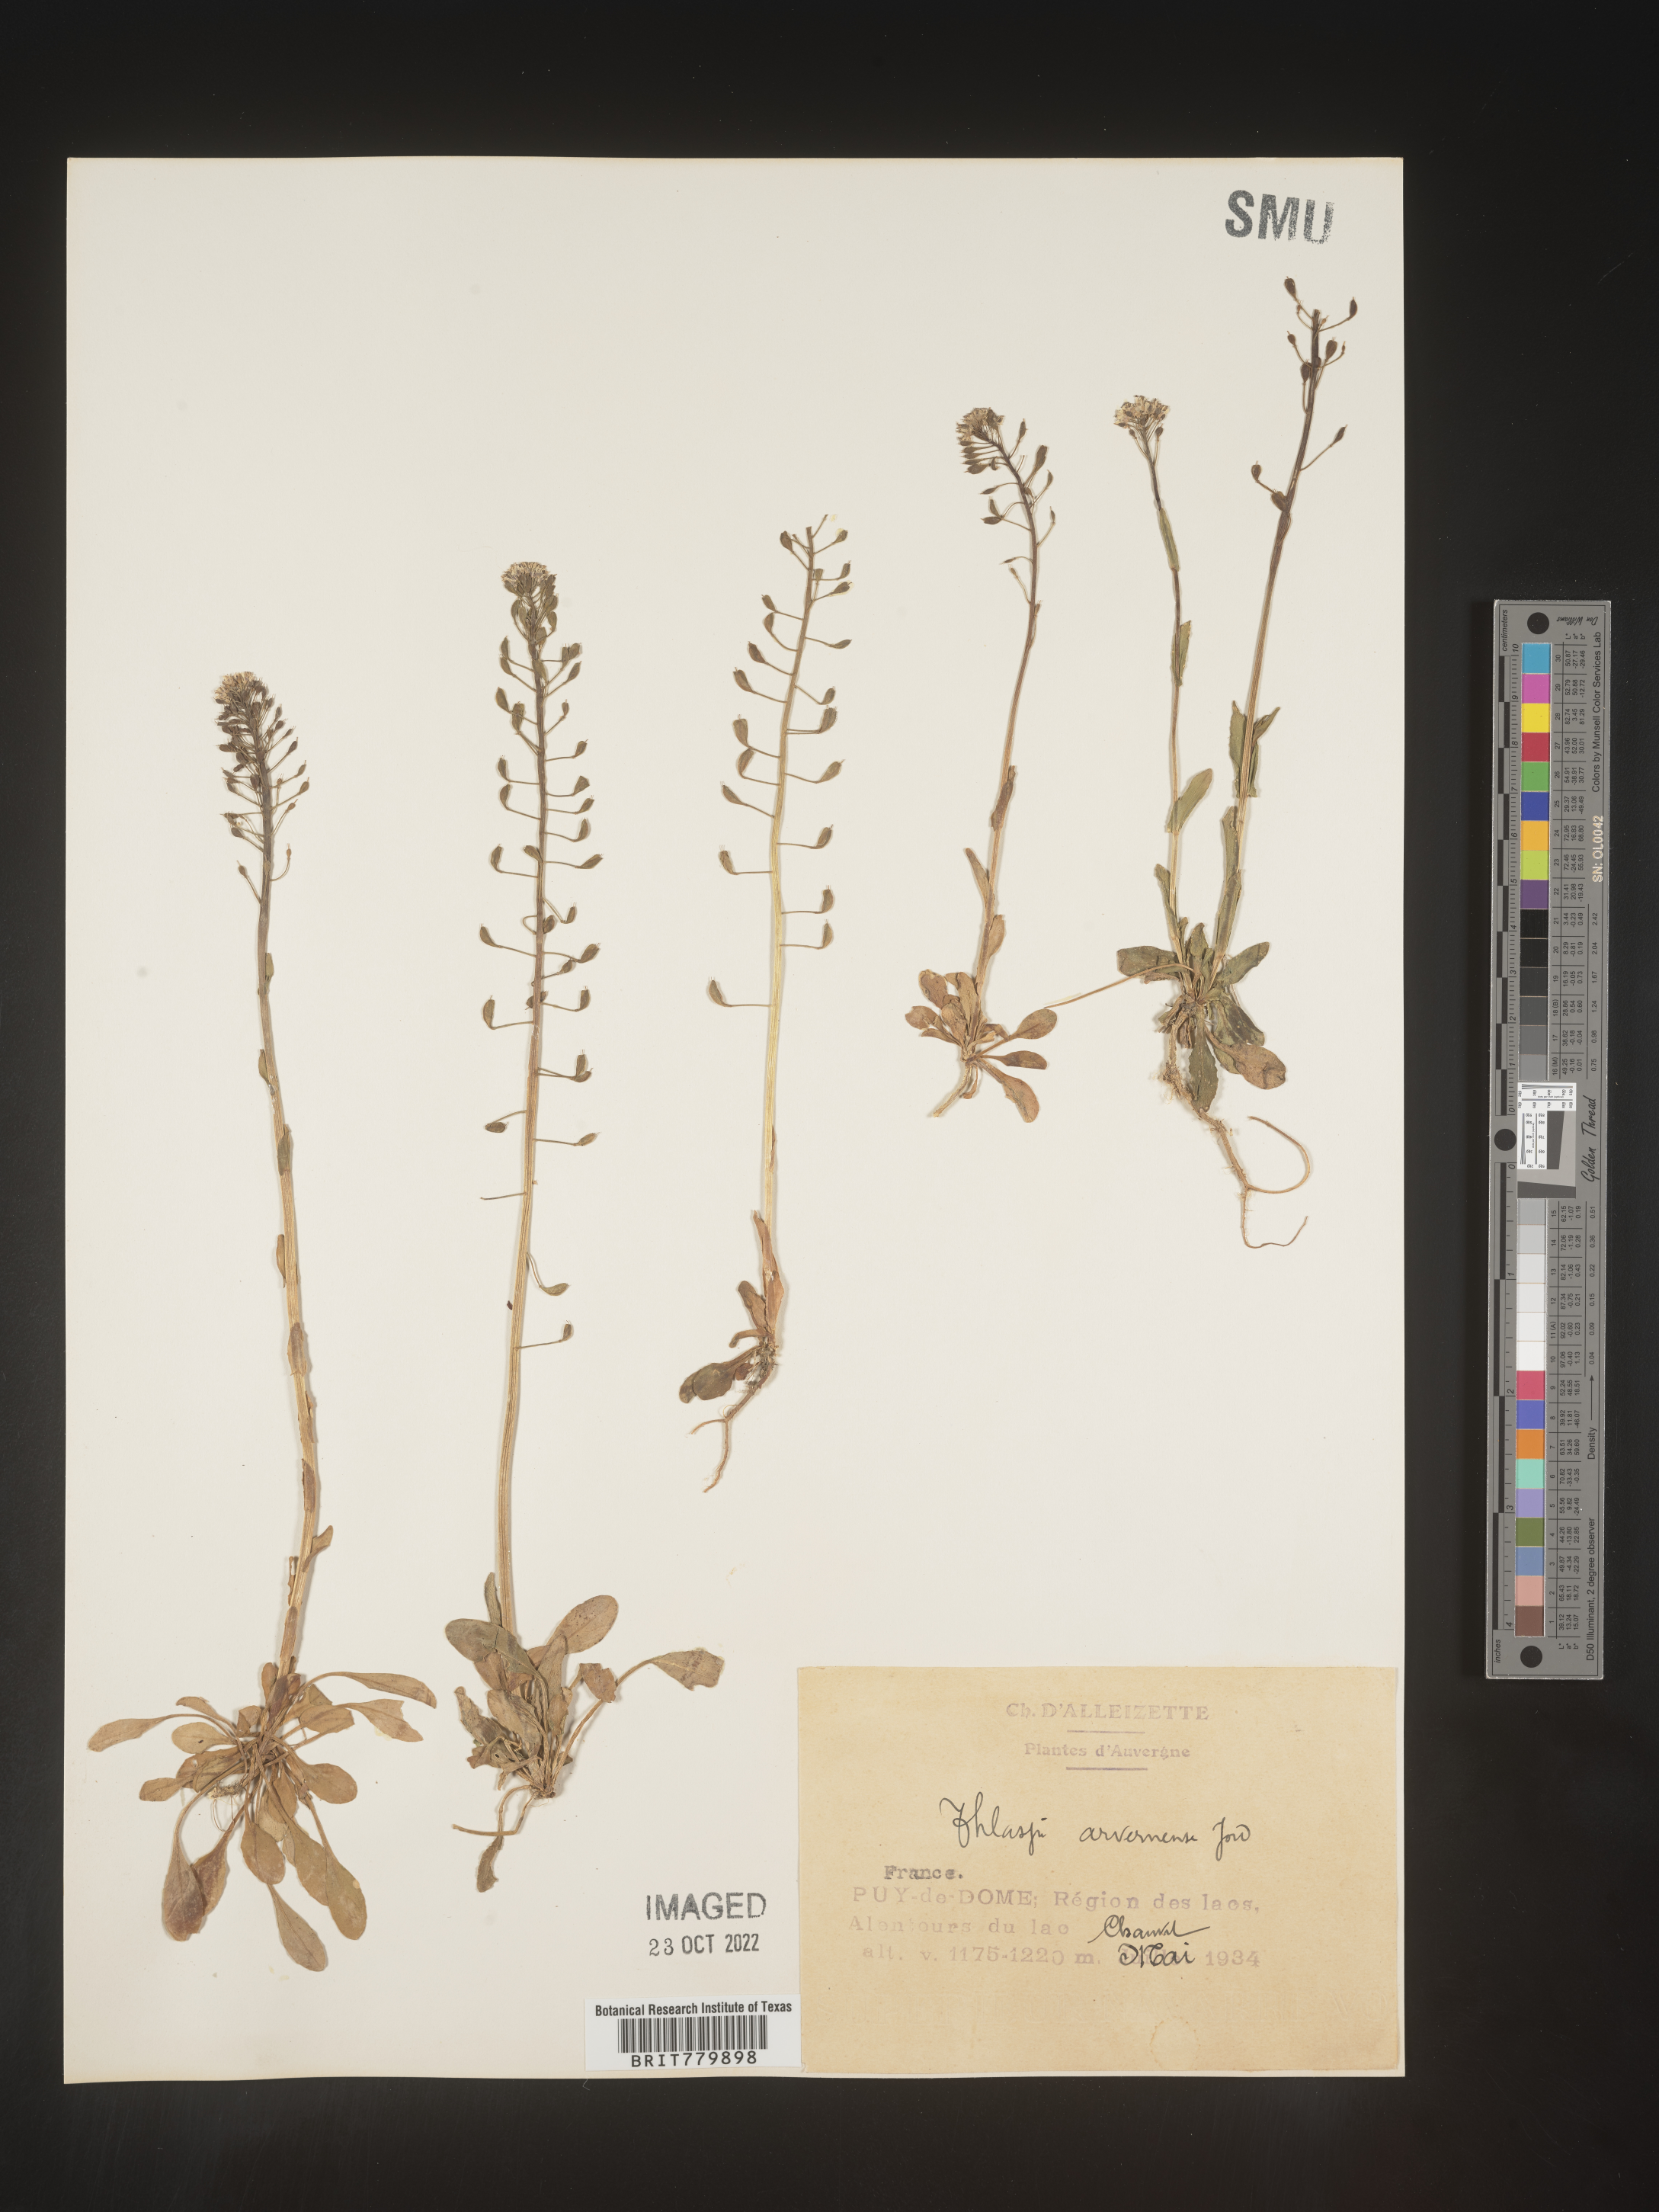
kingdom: Plantae
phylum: Tracheophyta
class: Magnoliopsida
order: Brassicales
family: Brassicaceae
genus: Thlaspi
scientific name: Thlaspi
